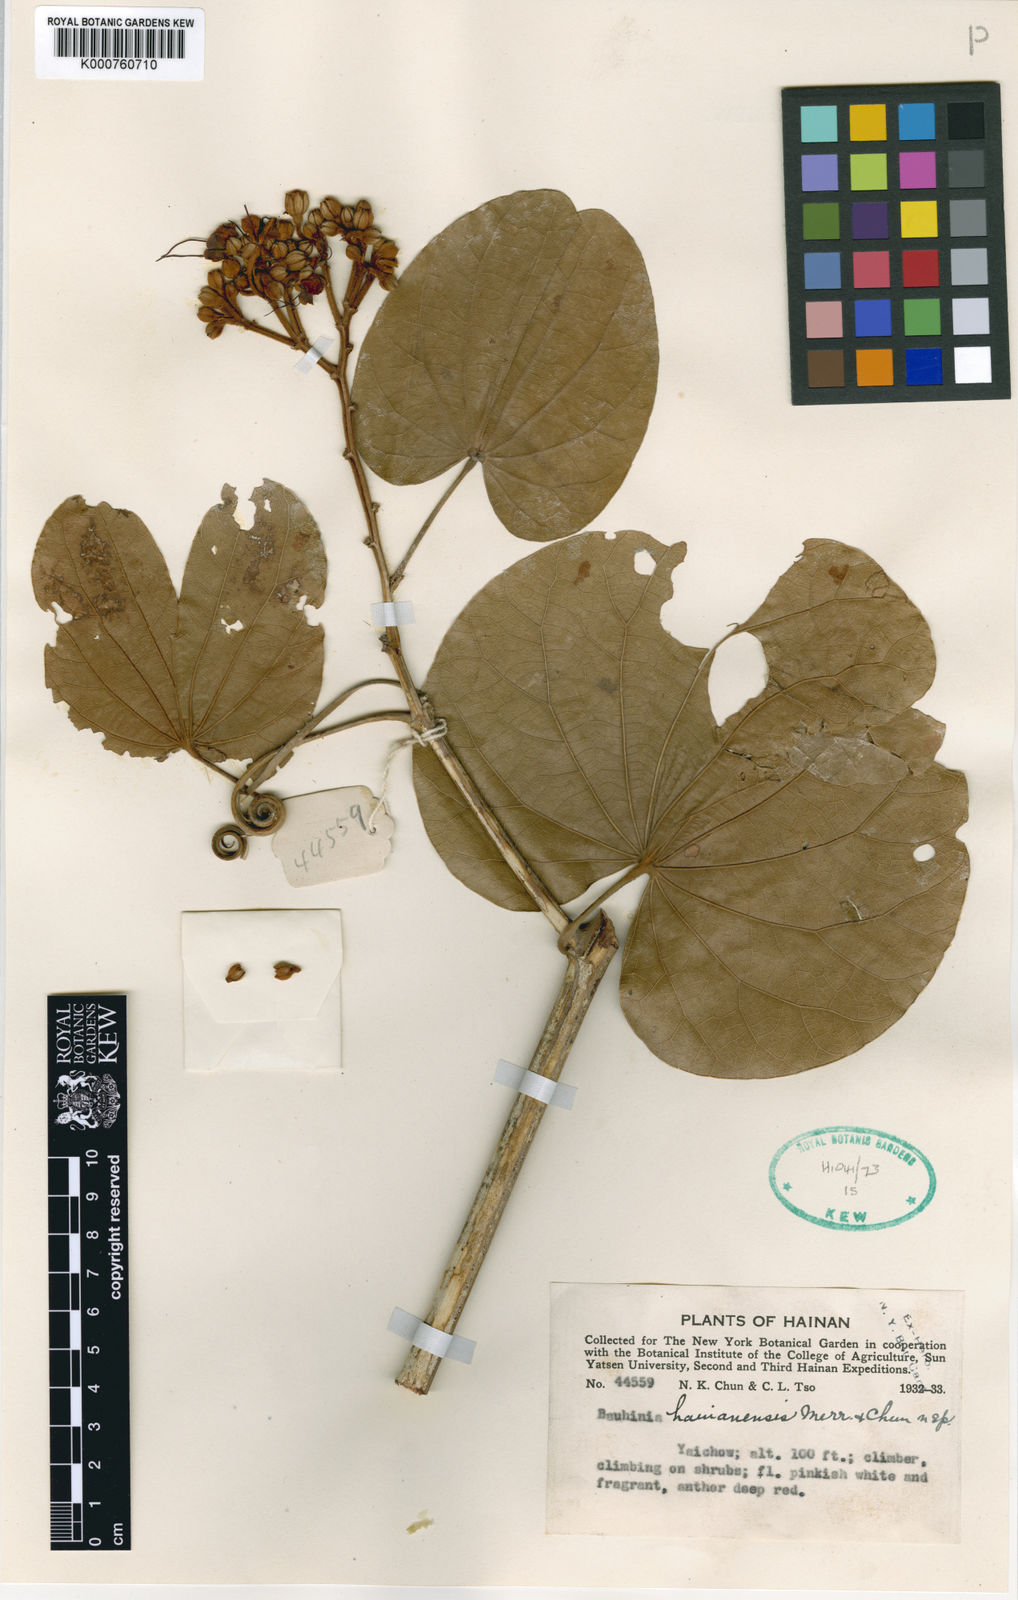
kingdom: Plantae
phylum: Tracheophyta
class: Magnoliopsida
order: Fabales
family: Fabaceae
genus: Bauhinia
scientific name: Bauhinia
